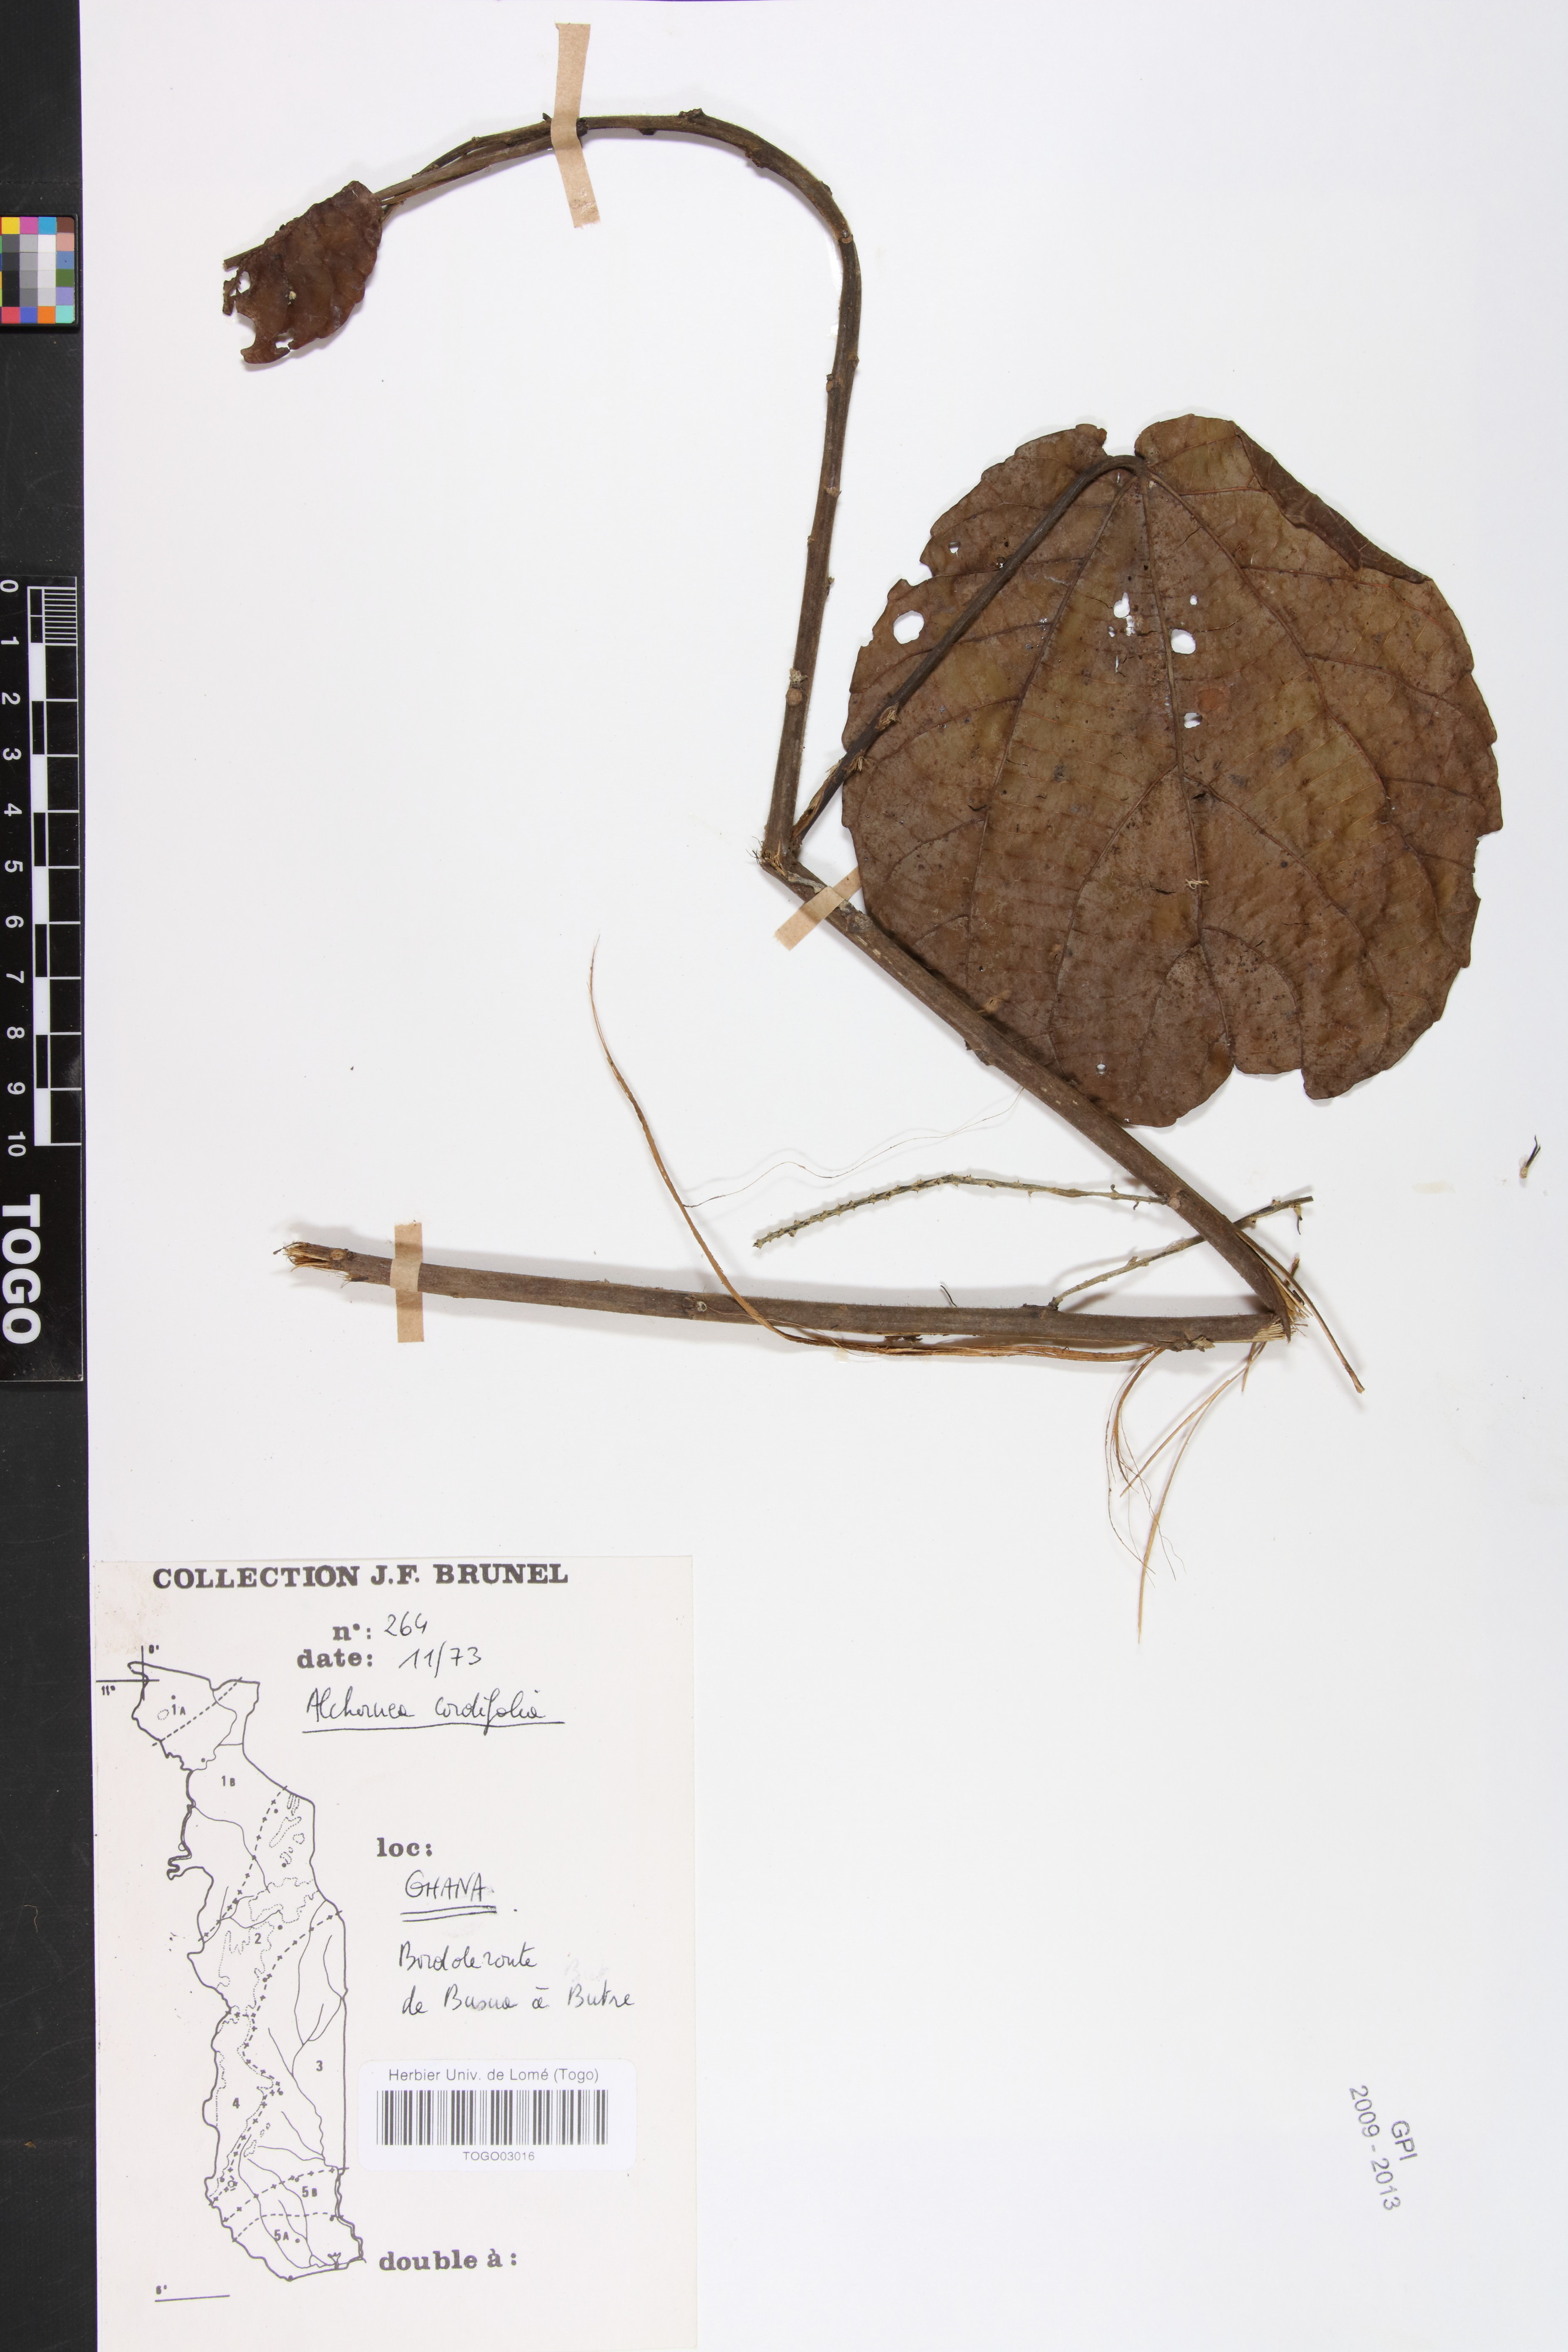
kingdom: Plantae
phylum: Tracheophyta
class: Magnoliopsida
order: Malpighiales
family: Euphorbiaceae
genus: Alchornea
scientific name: Alchornea cordifolia
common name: Christmasbush
